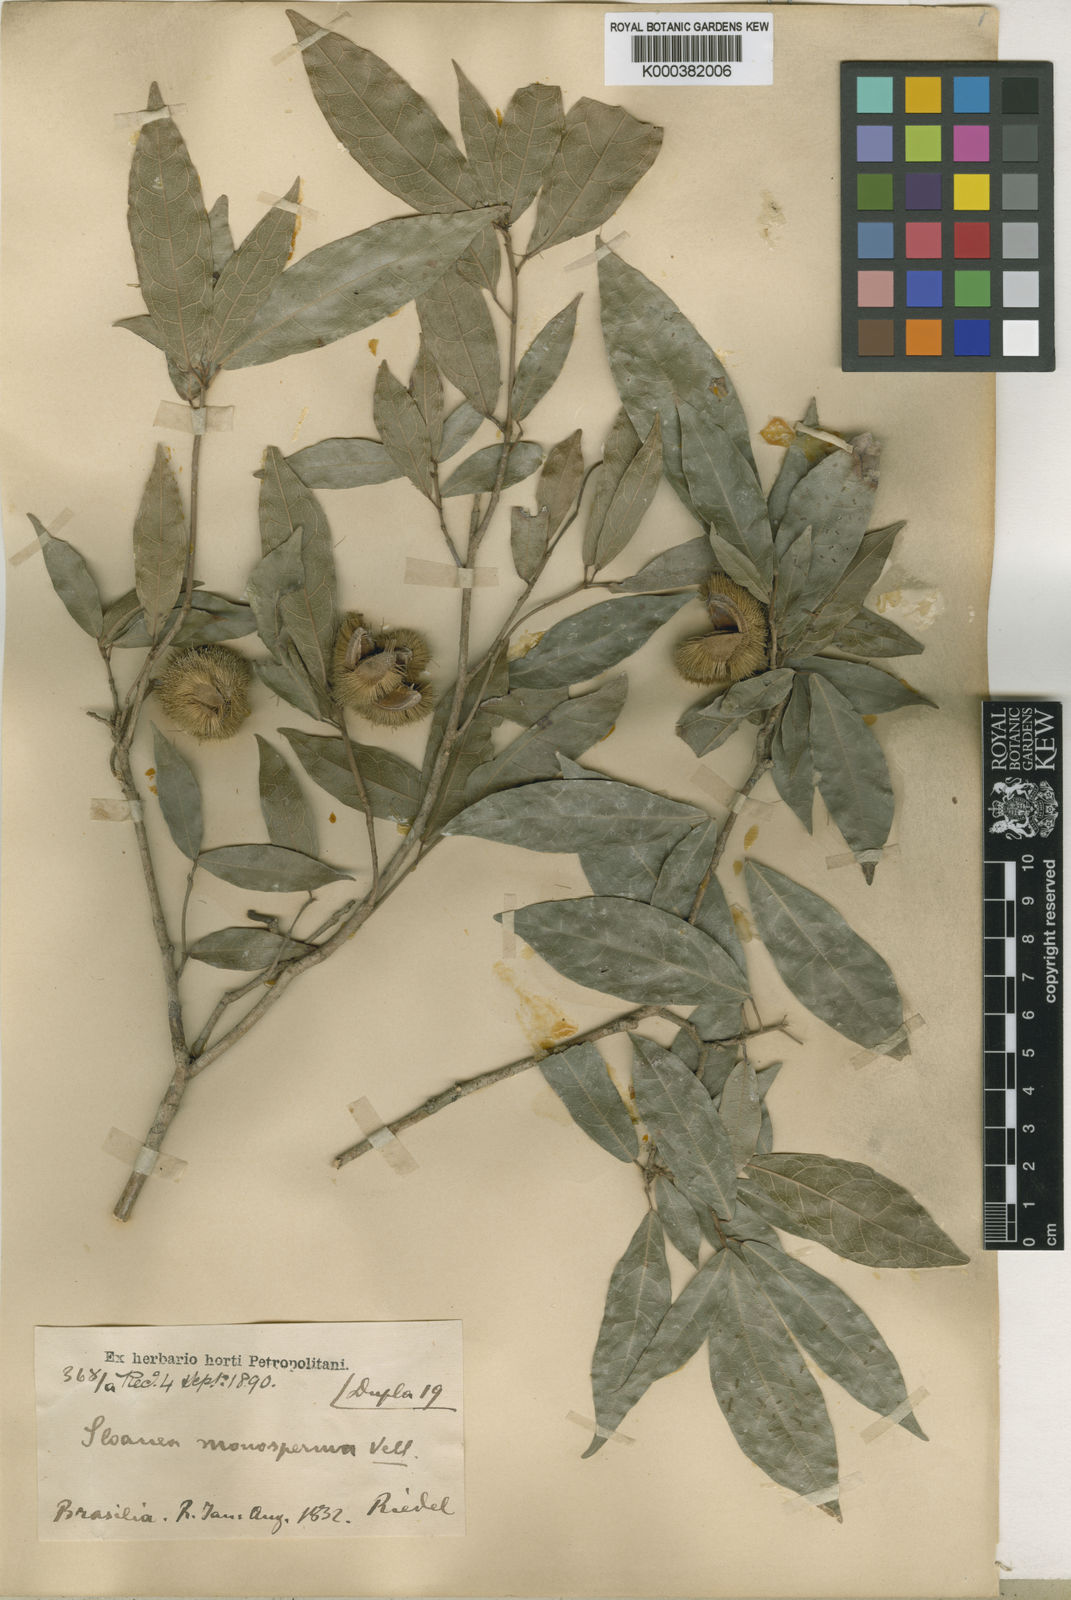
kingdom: Plantae
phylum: Tracheophyta
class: Magnoliopsida
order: Oxalidales
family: Elaeocarpaceae
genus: Sloanea
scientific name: Sloanea hirsuta
